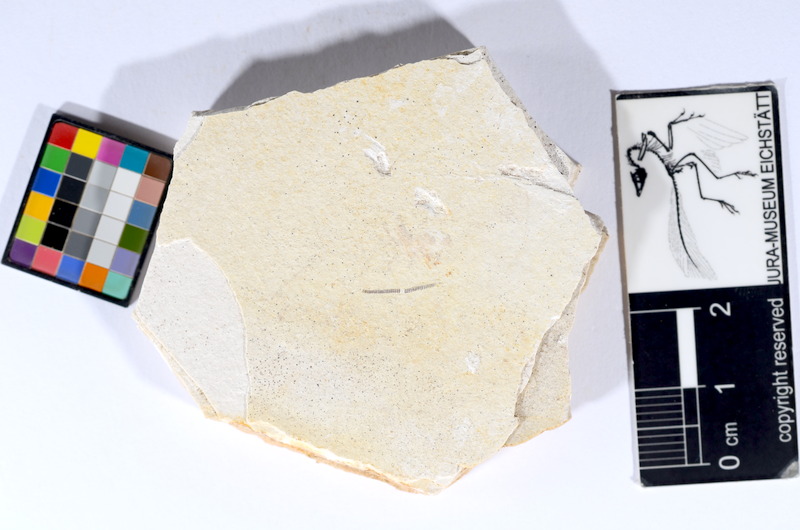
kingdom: Animalia
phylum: Chordata
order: Salmoniformes
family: Orthogonikleithridae
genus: Orthogonikleithrus
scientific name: Orthogonikleithrus hoelli
